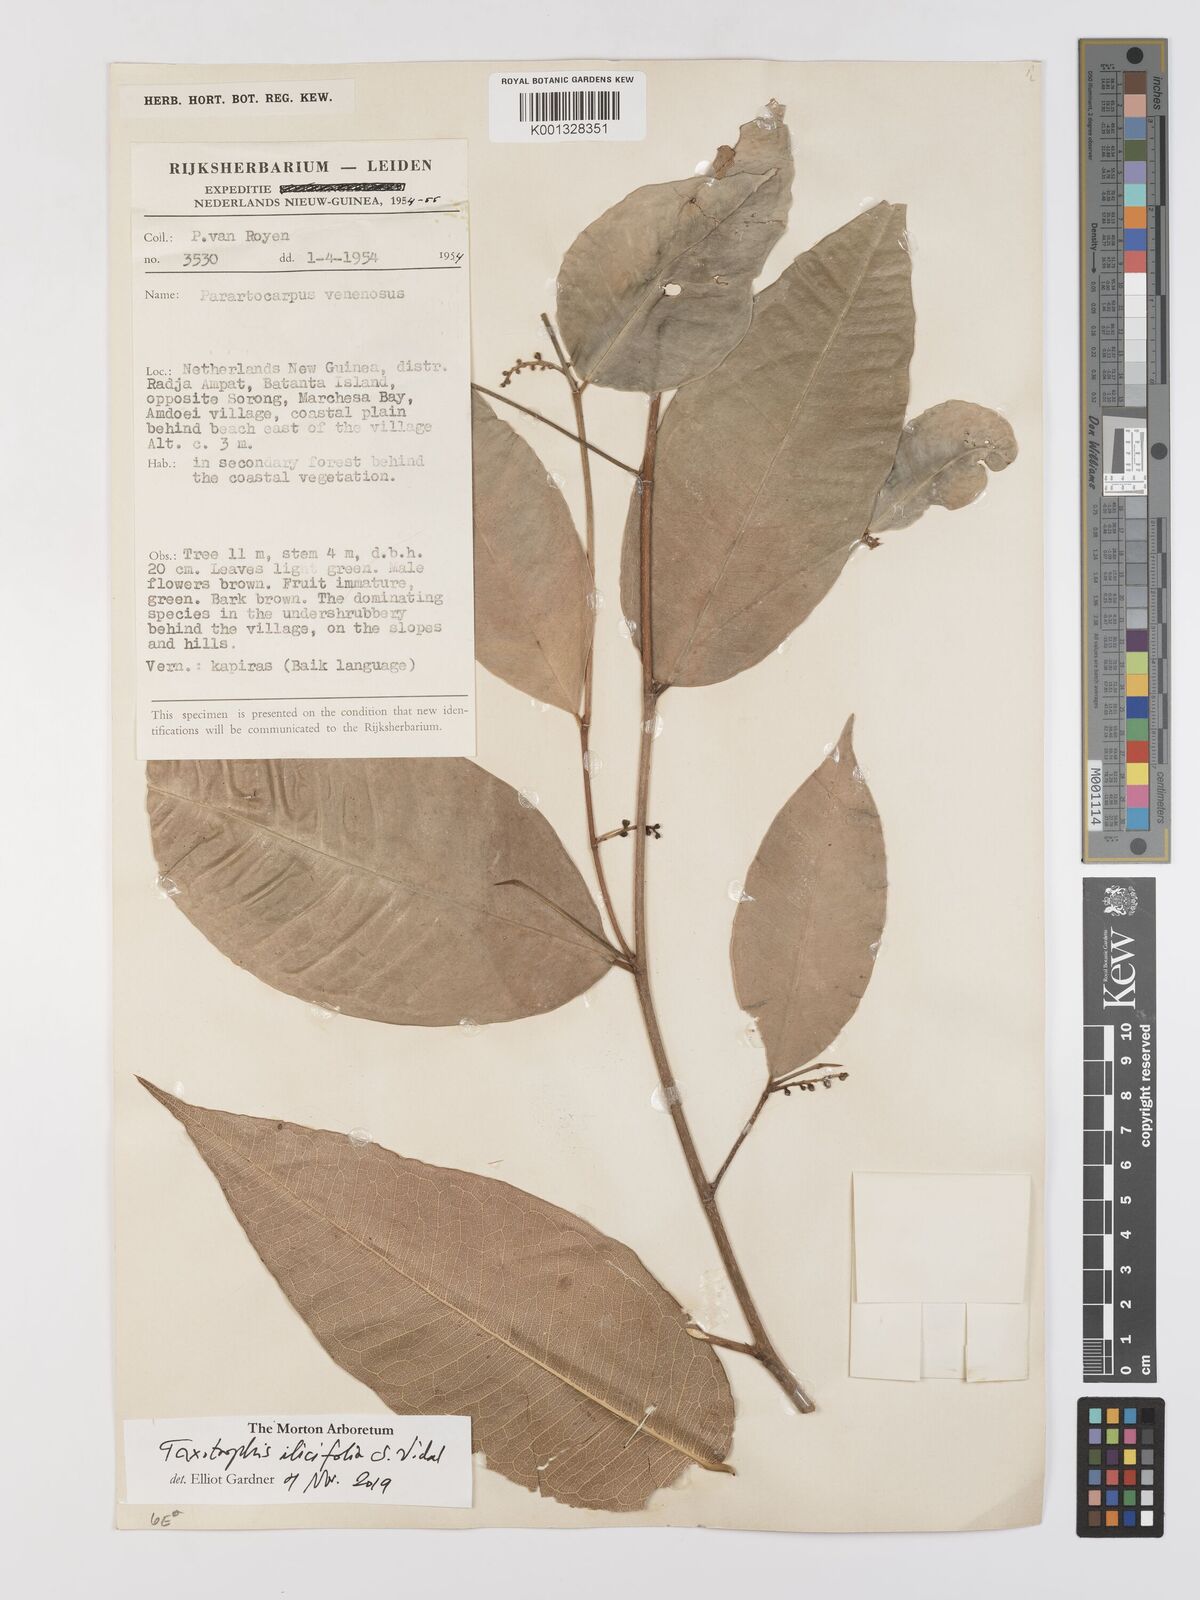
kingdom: Plantae
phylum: Tracheophyta
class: Magnoliopsida
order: Rosales
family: Moraceae
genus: Taxotrophis
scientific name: Taxotrophis ilicifolia
